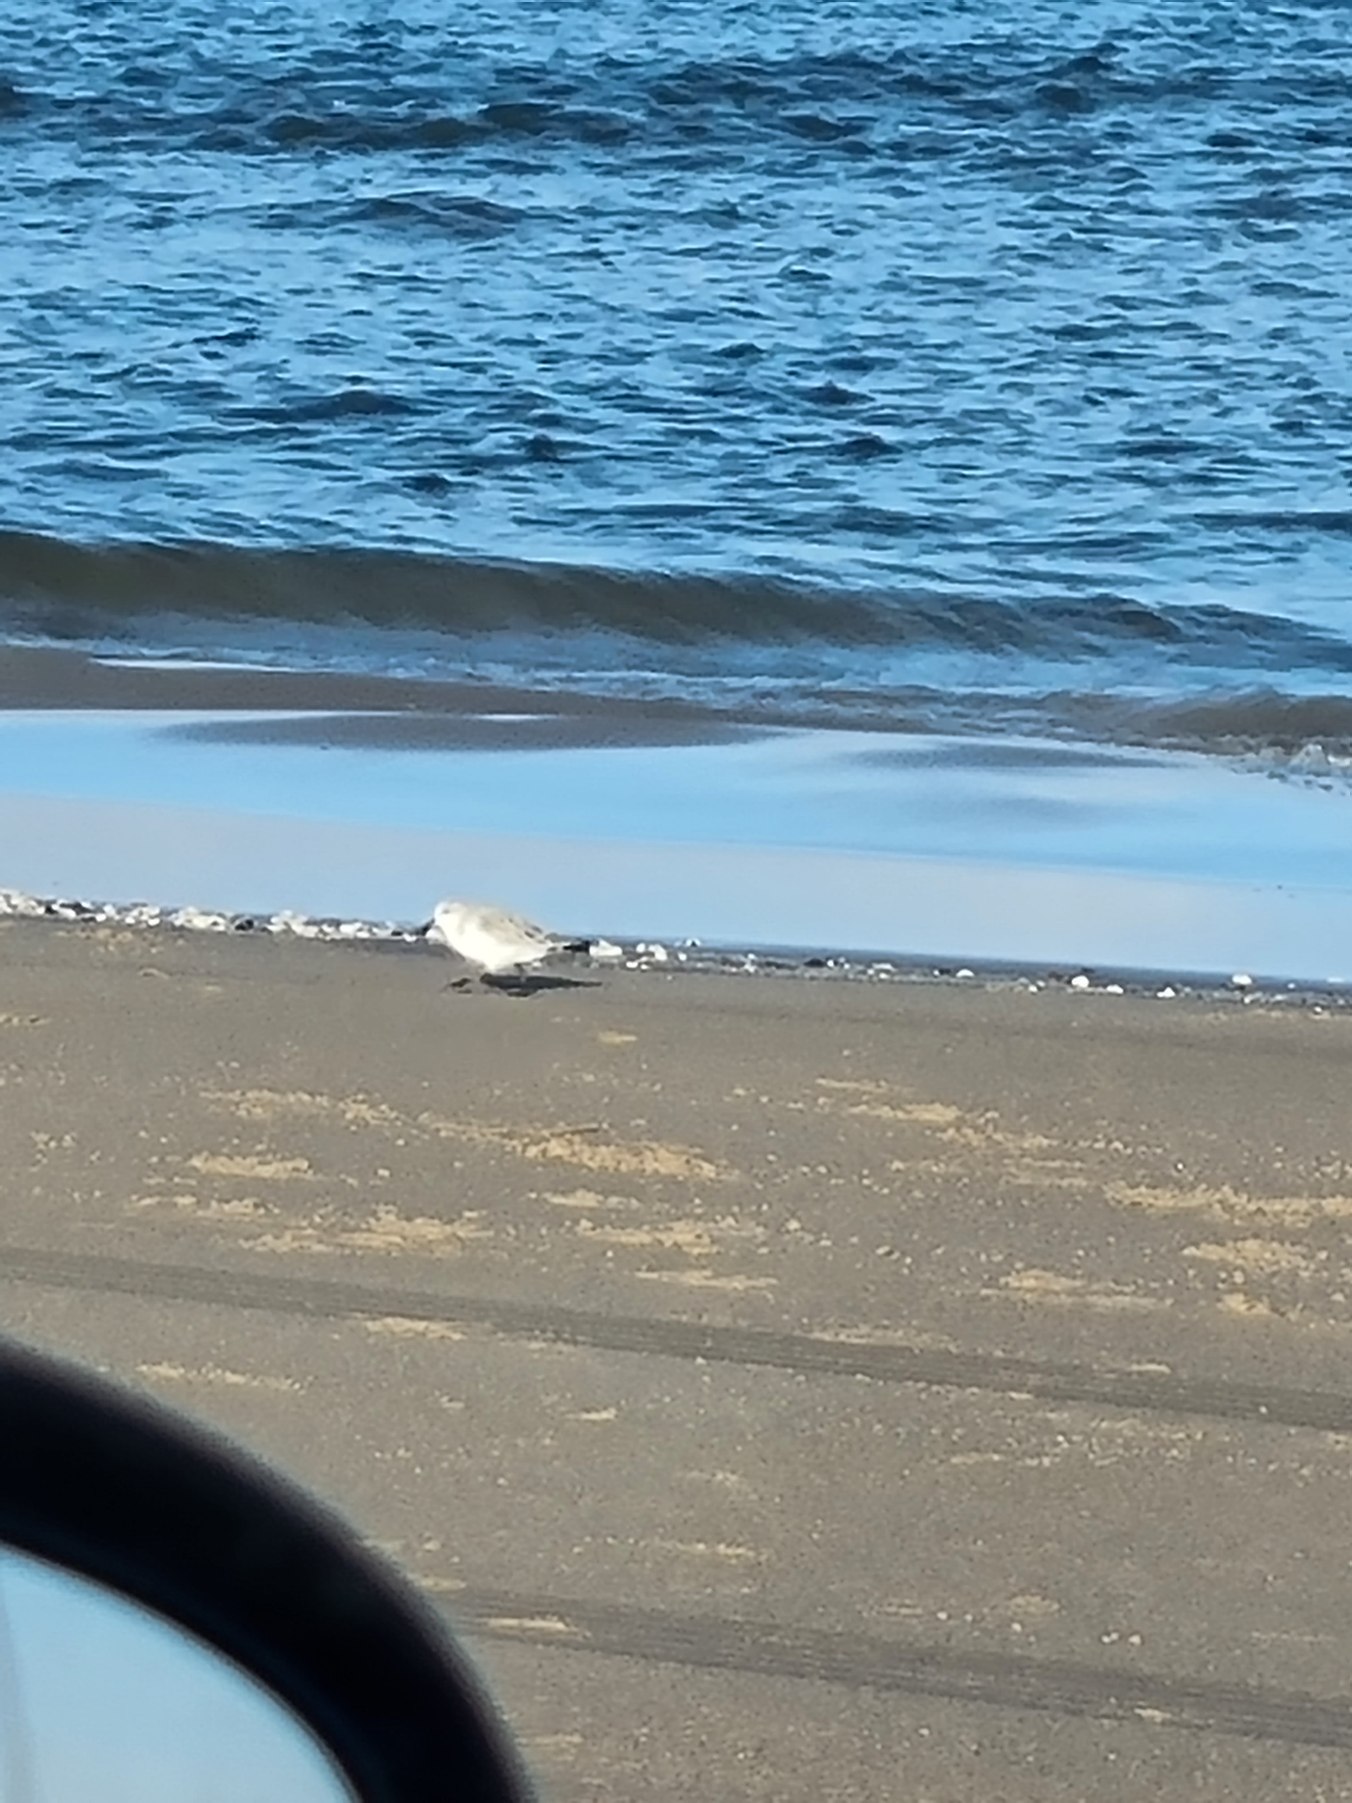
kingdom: Animalia
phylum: Chordata
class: Aves
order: Charadriiformes
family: Scolopacidae
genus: Calidris
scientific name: Calidris alba
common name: Sandløber
